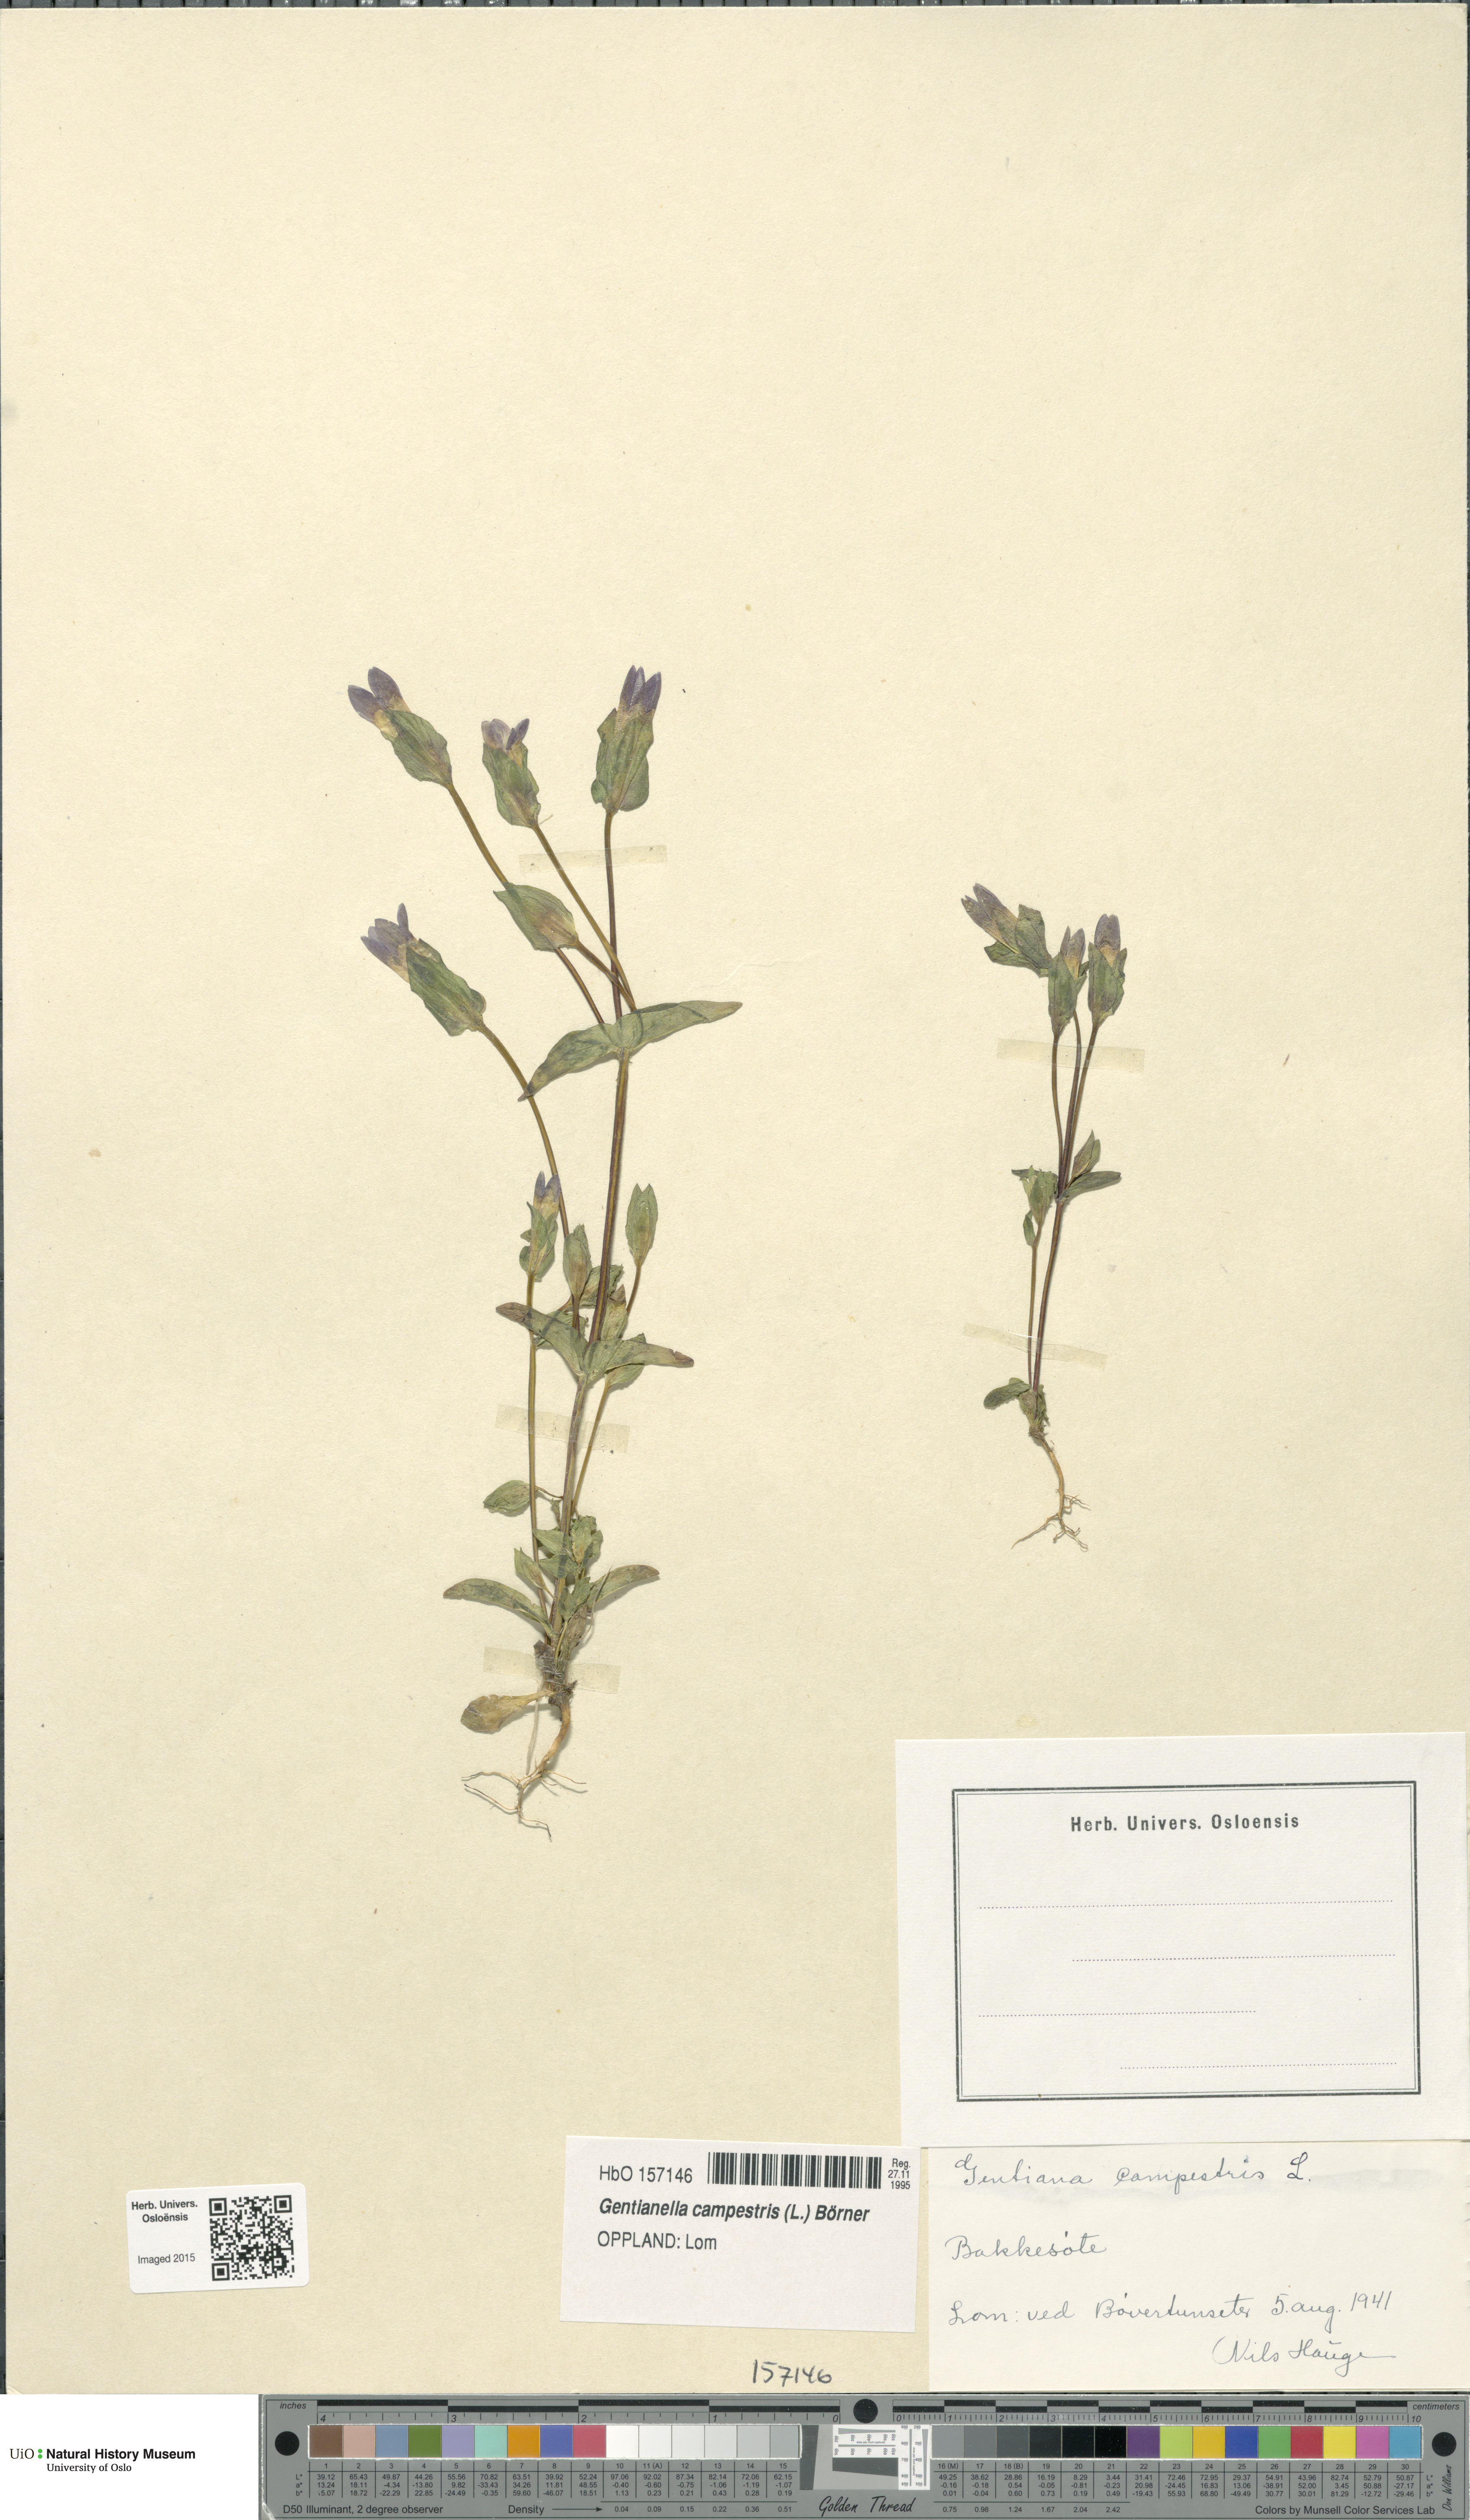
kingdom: Plantae
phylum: Tracheophyta
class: Magnoliopsida
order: Gentianales
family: Gentianaceae
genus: Gentianella
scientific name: Gentianella campestris
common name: Field gentian
